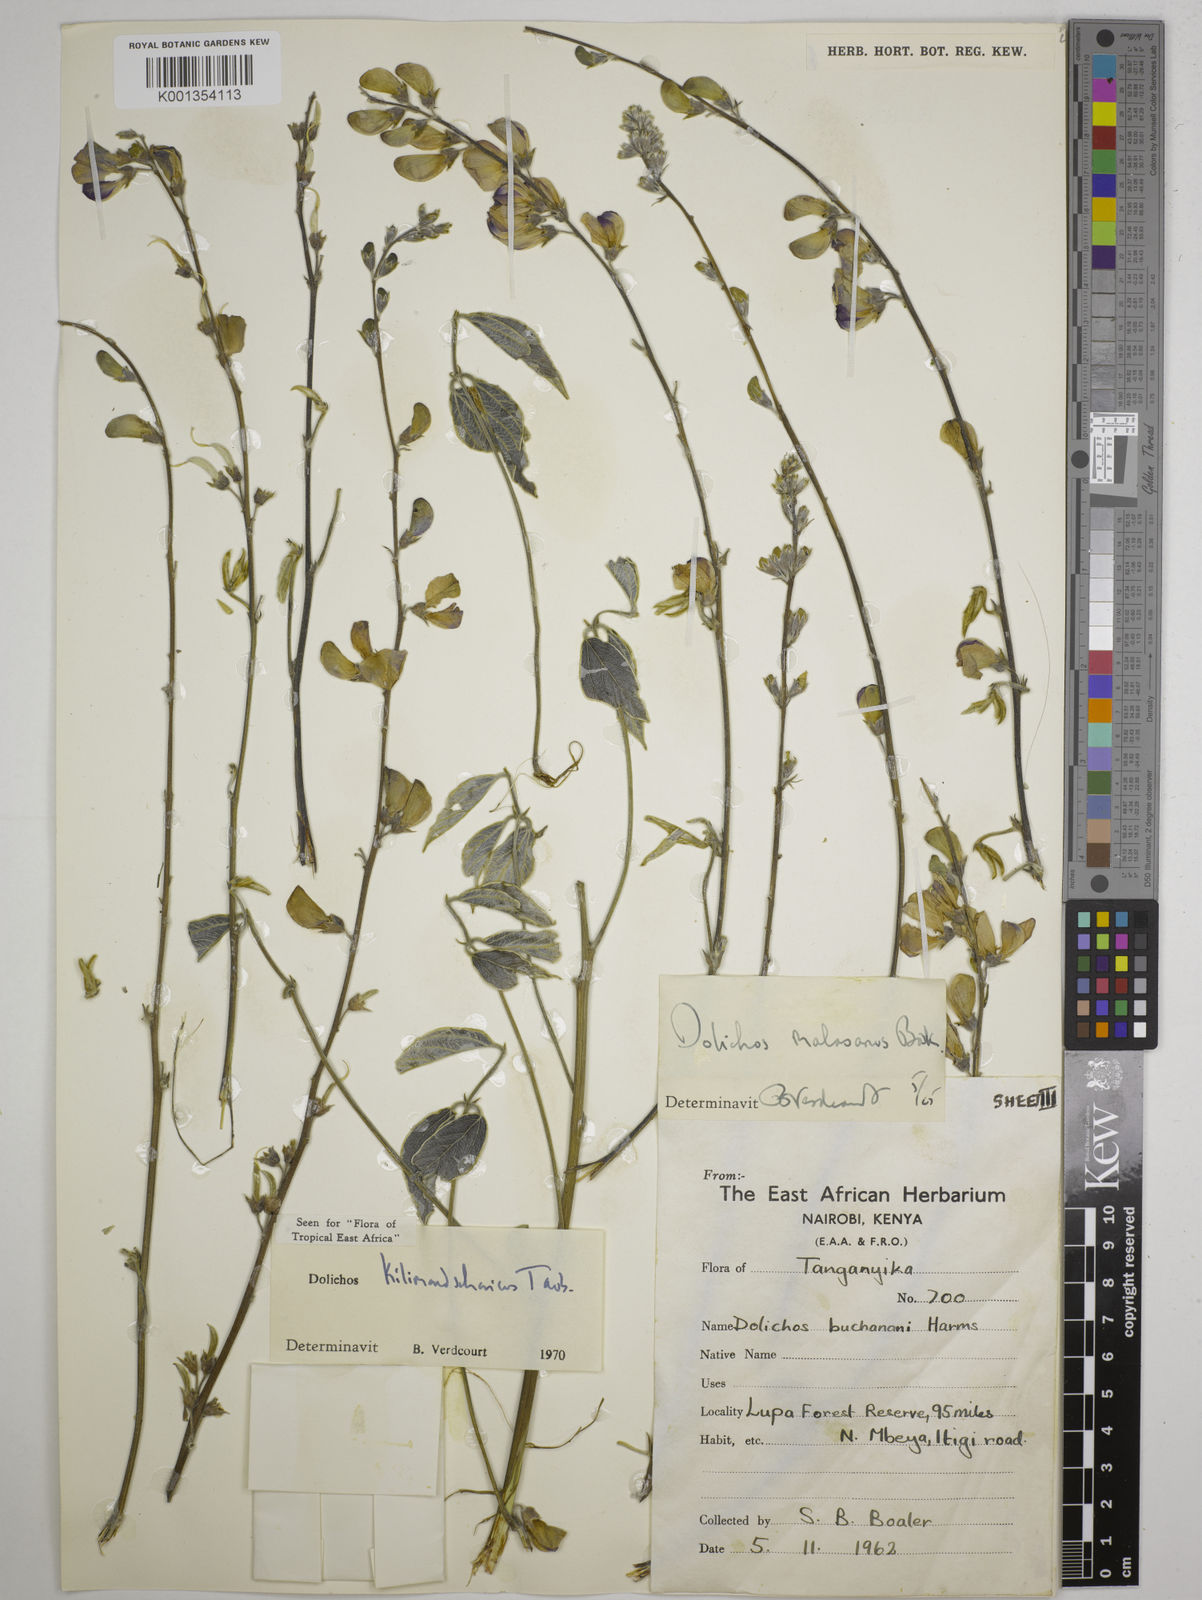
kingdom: Plantae
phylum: Tracheophyta
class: Magnoliopsida
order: Fabales
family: Fabaceae
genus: Dolichos
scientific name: Dolichos kilimandscharicus
